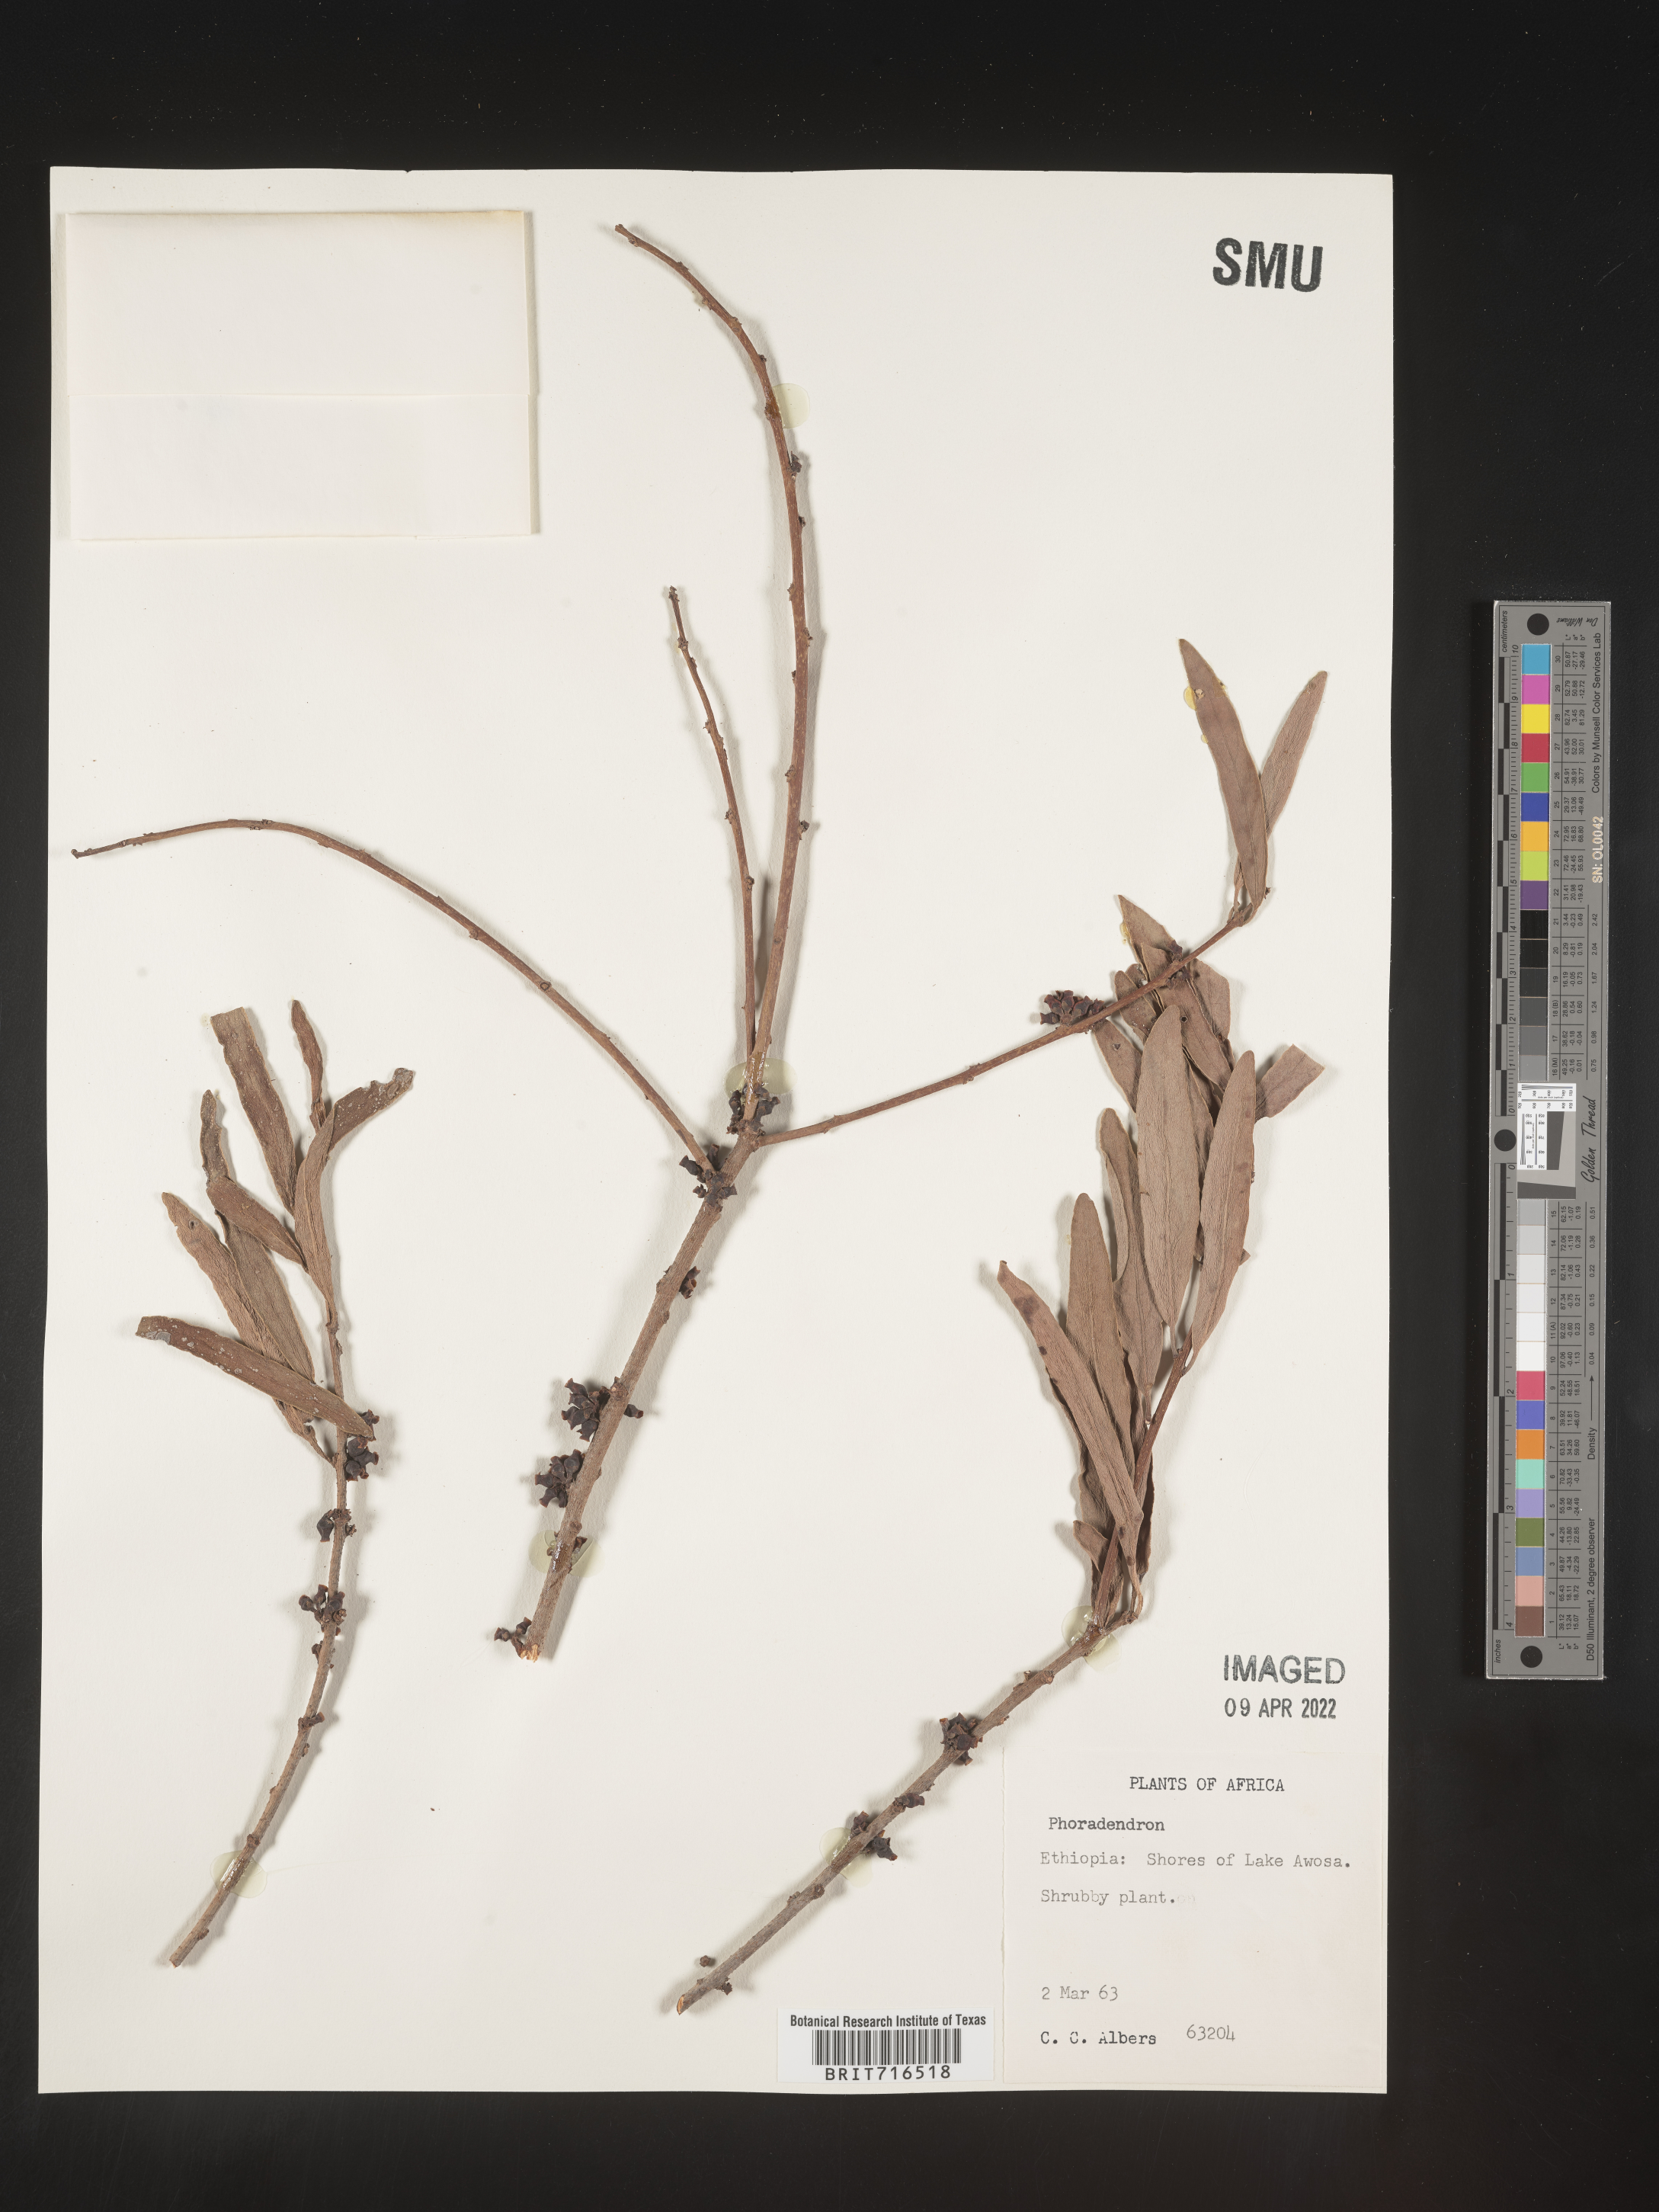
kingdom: Plantae
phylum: Tracheophyta
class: Magnoliopsida
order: Santalales
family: Viscaceae
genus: Viscum
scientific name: Viscum
